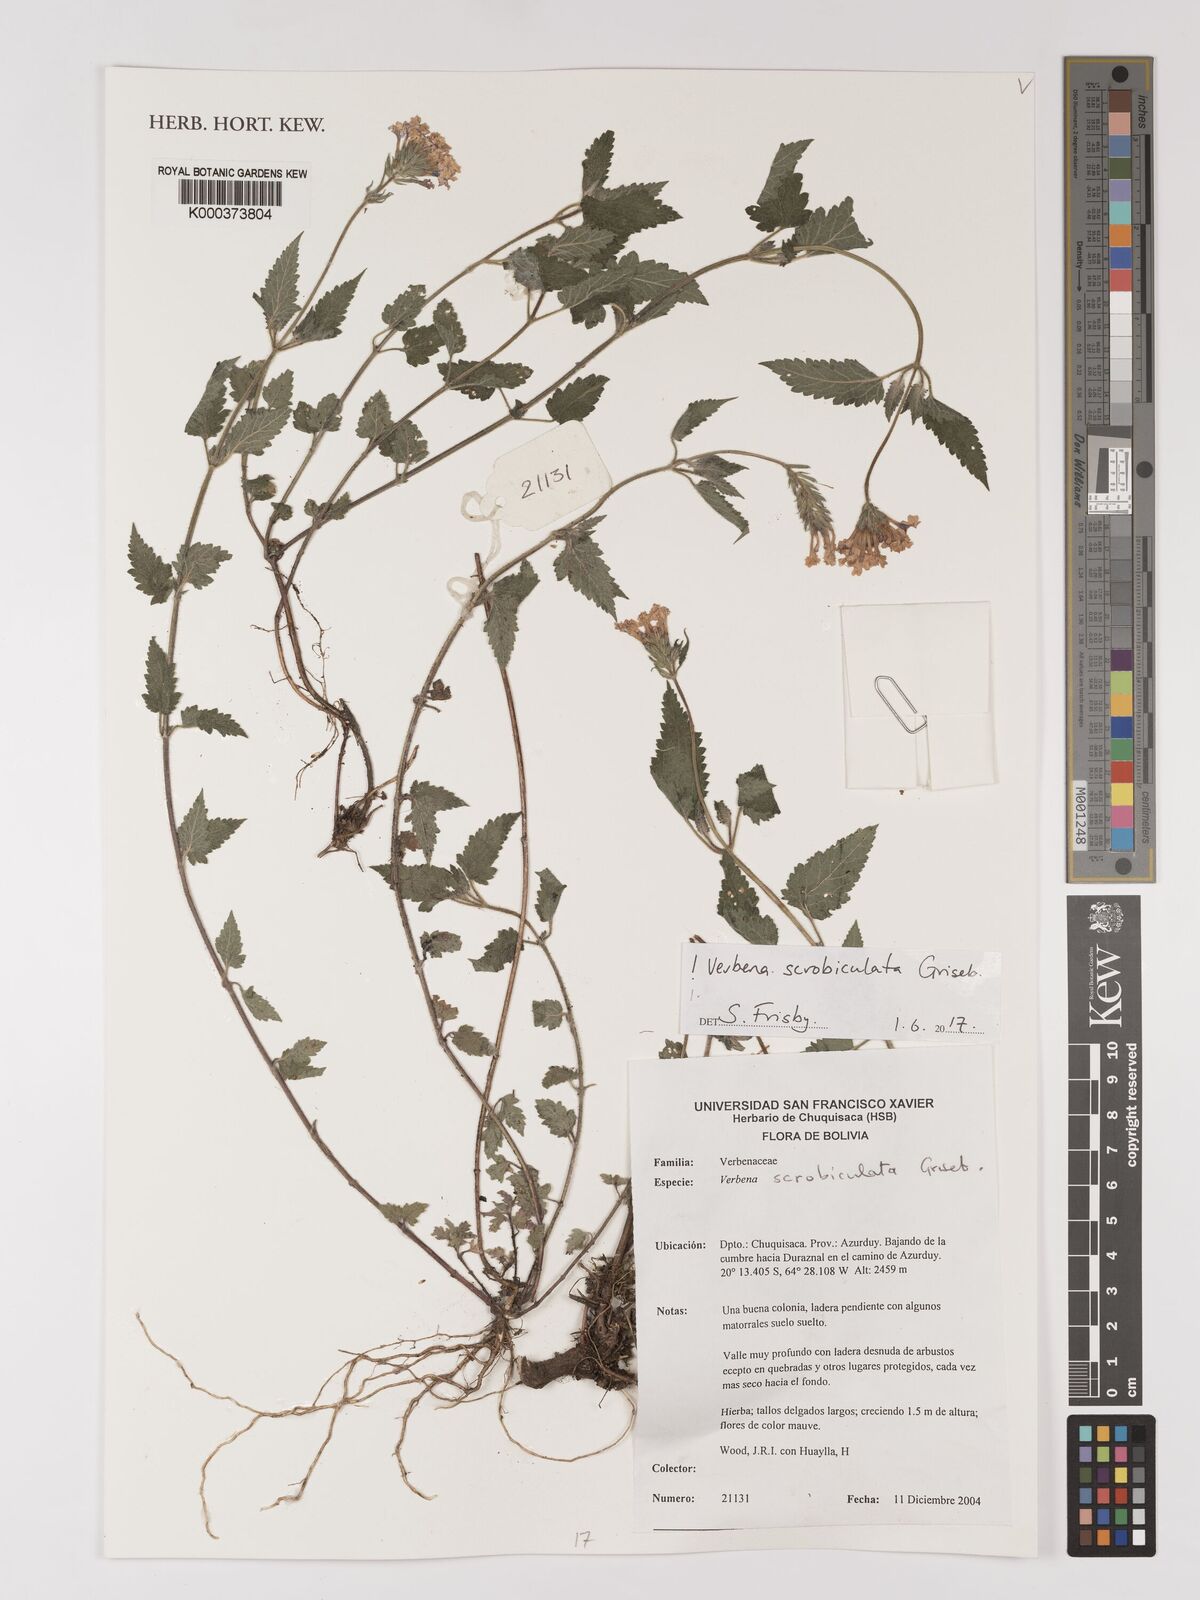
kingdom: Plantae
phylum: Tracheophyta
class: Magnoliopsida
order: Lamiales
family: Verbenaceae
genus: Verbena
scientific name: Verbena scrobiculata
